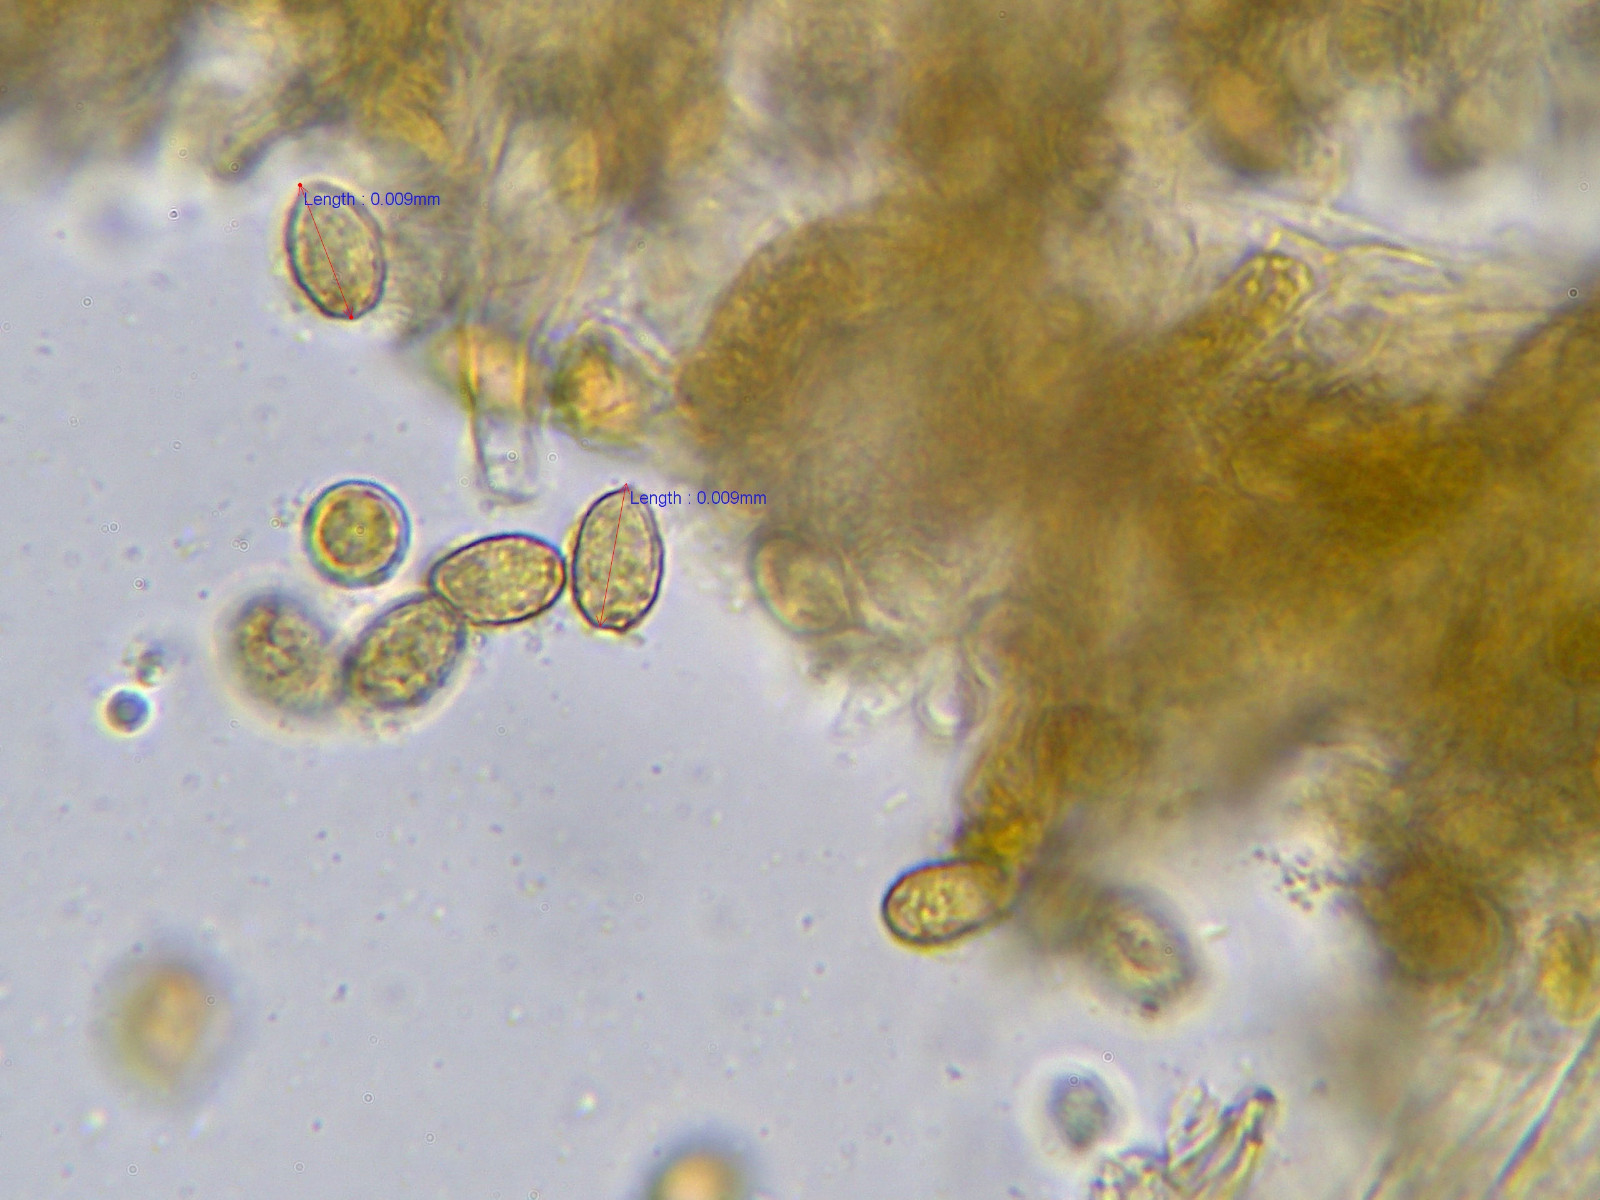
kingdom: Fungi
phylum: Basidiomycota
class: Agaricomycetes
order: Agaricales
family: Cortinariaceae
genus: Cortinarius
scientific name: Cortinarius castaneopallidus
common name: bronzetrævlet slørhat
